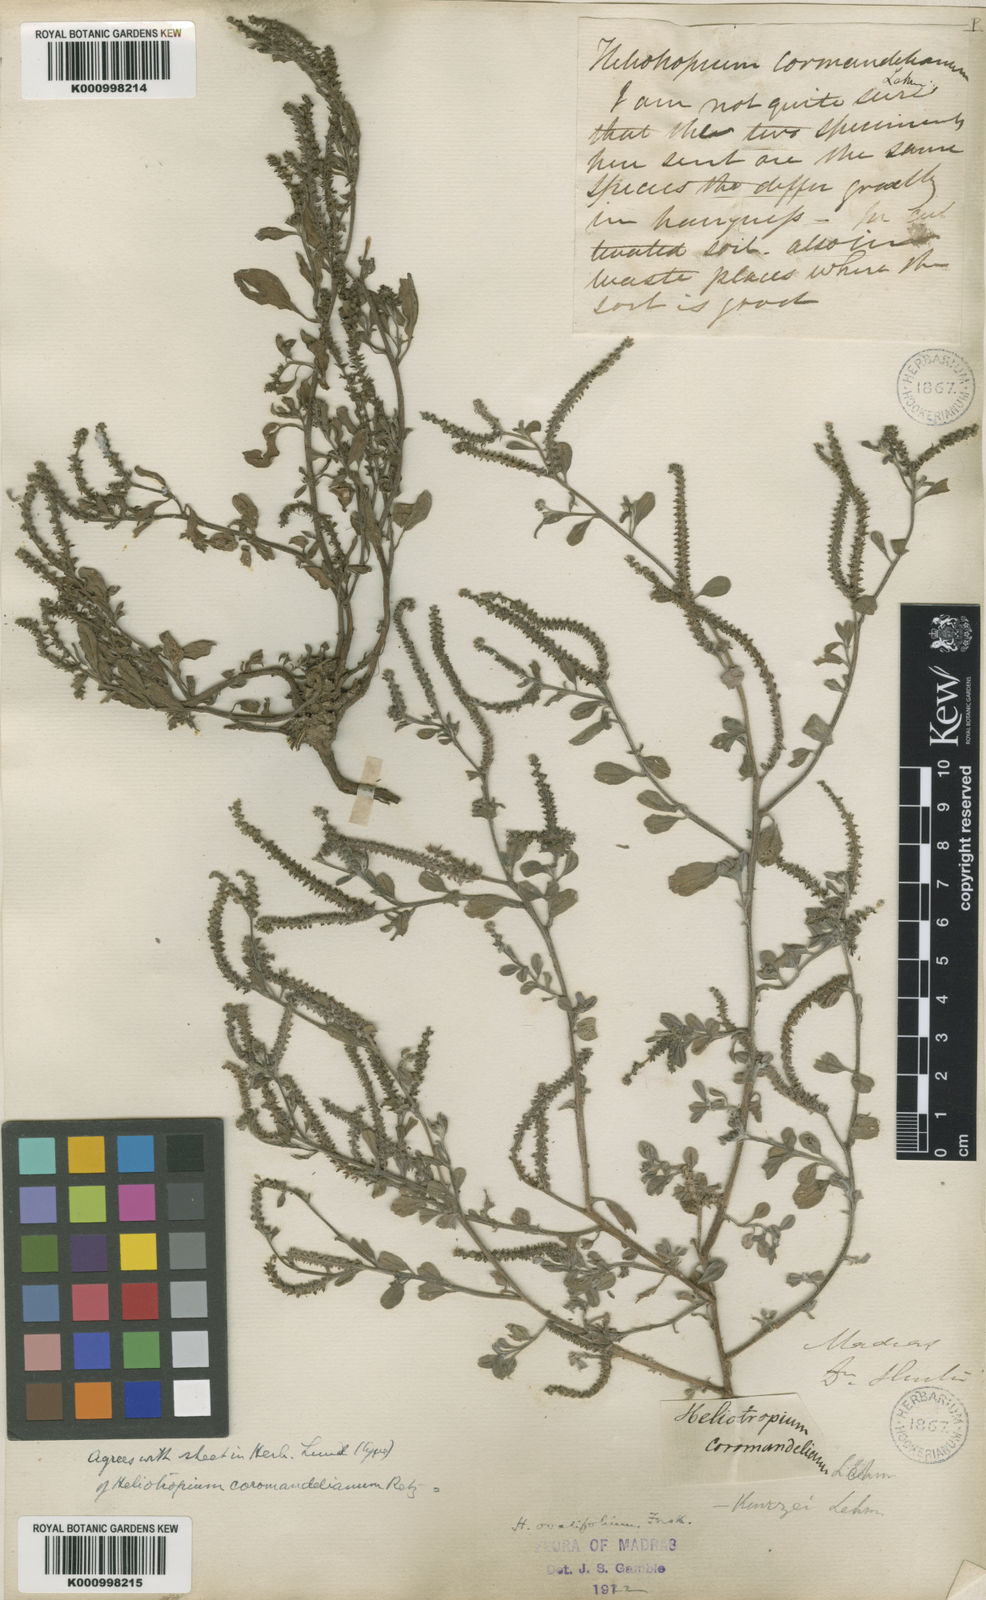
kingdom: Plantae
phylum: Tracheophyta
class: Magnoliopsida
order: Boraginales
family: Heliotropiaceae
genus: Euploca
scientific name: Euploca ovalifolia
